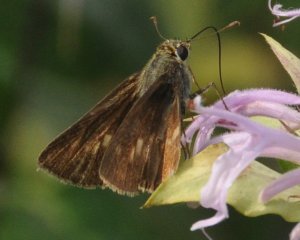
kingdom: Animalia
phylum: Arthropoda
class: Insecta
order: Lepidoptera
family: Hesperiidae
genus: Polites
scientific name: Polites egeremet
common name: Northern Broken-Dash
